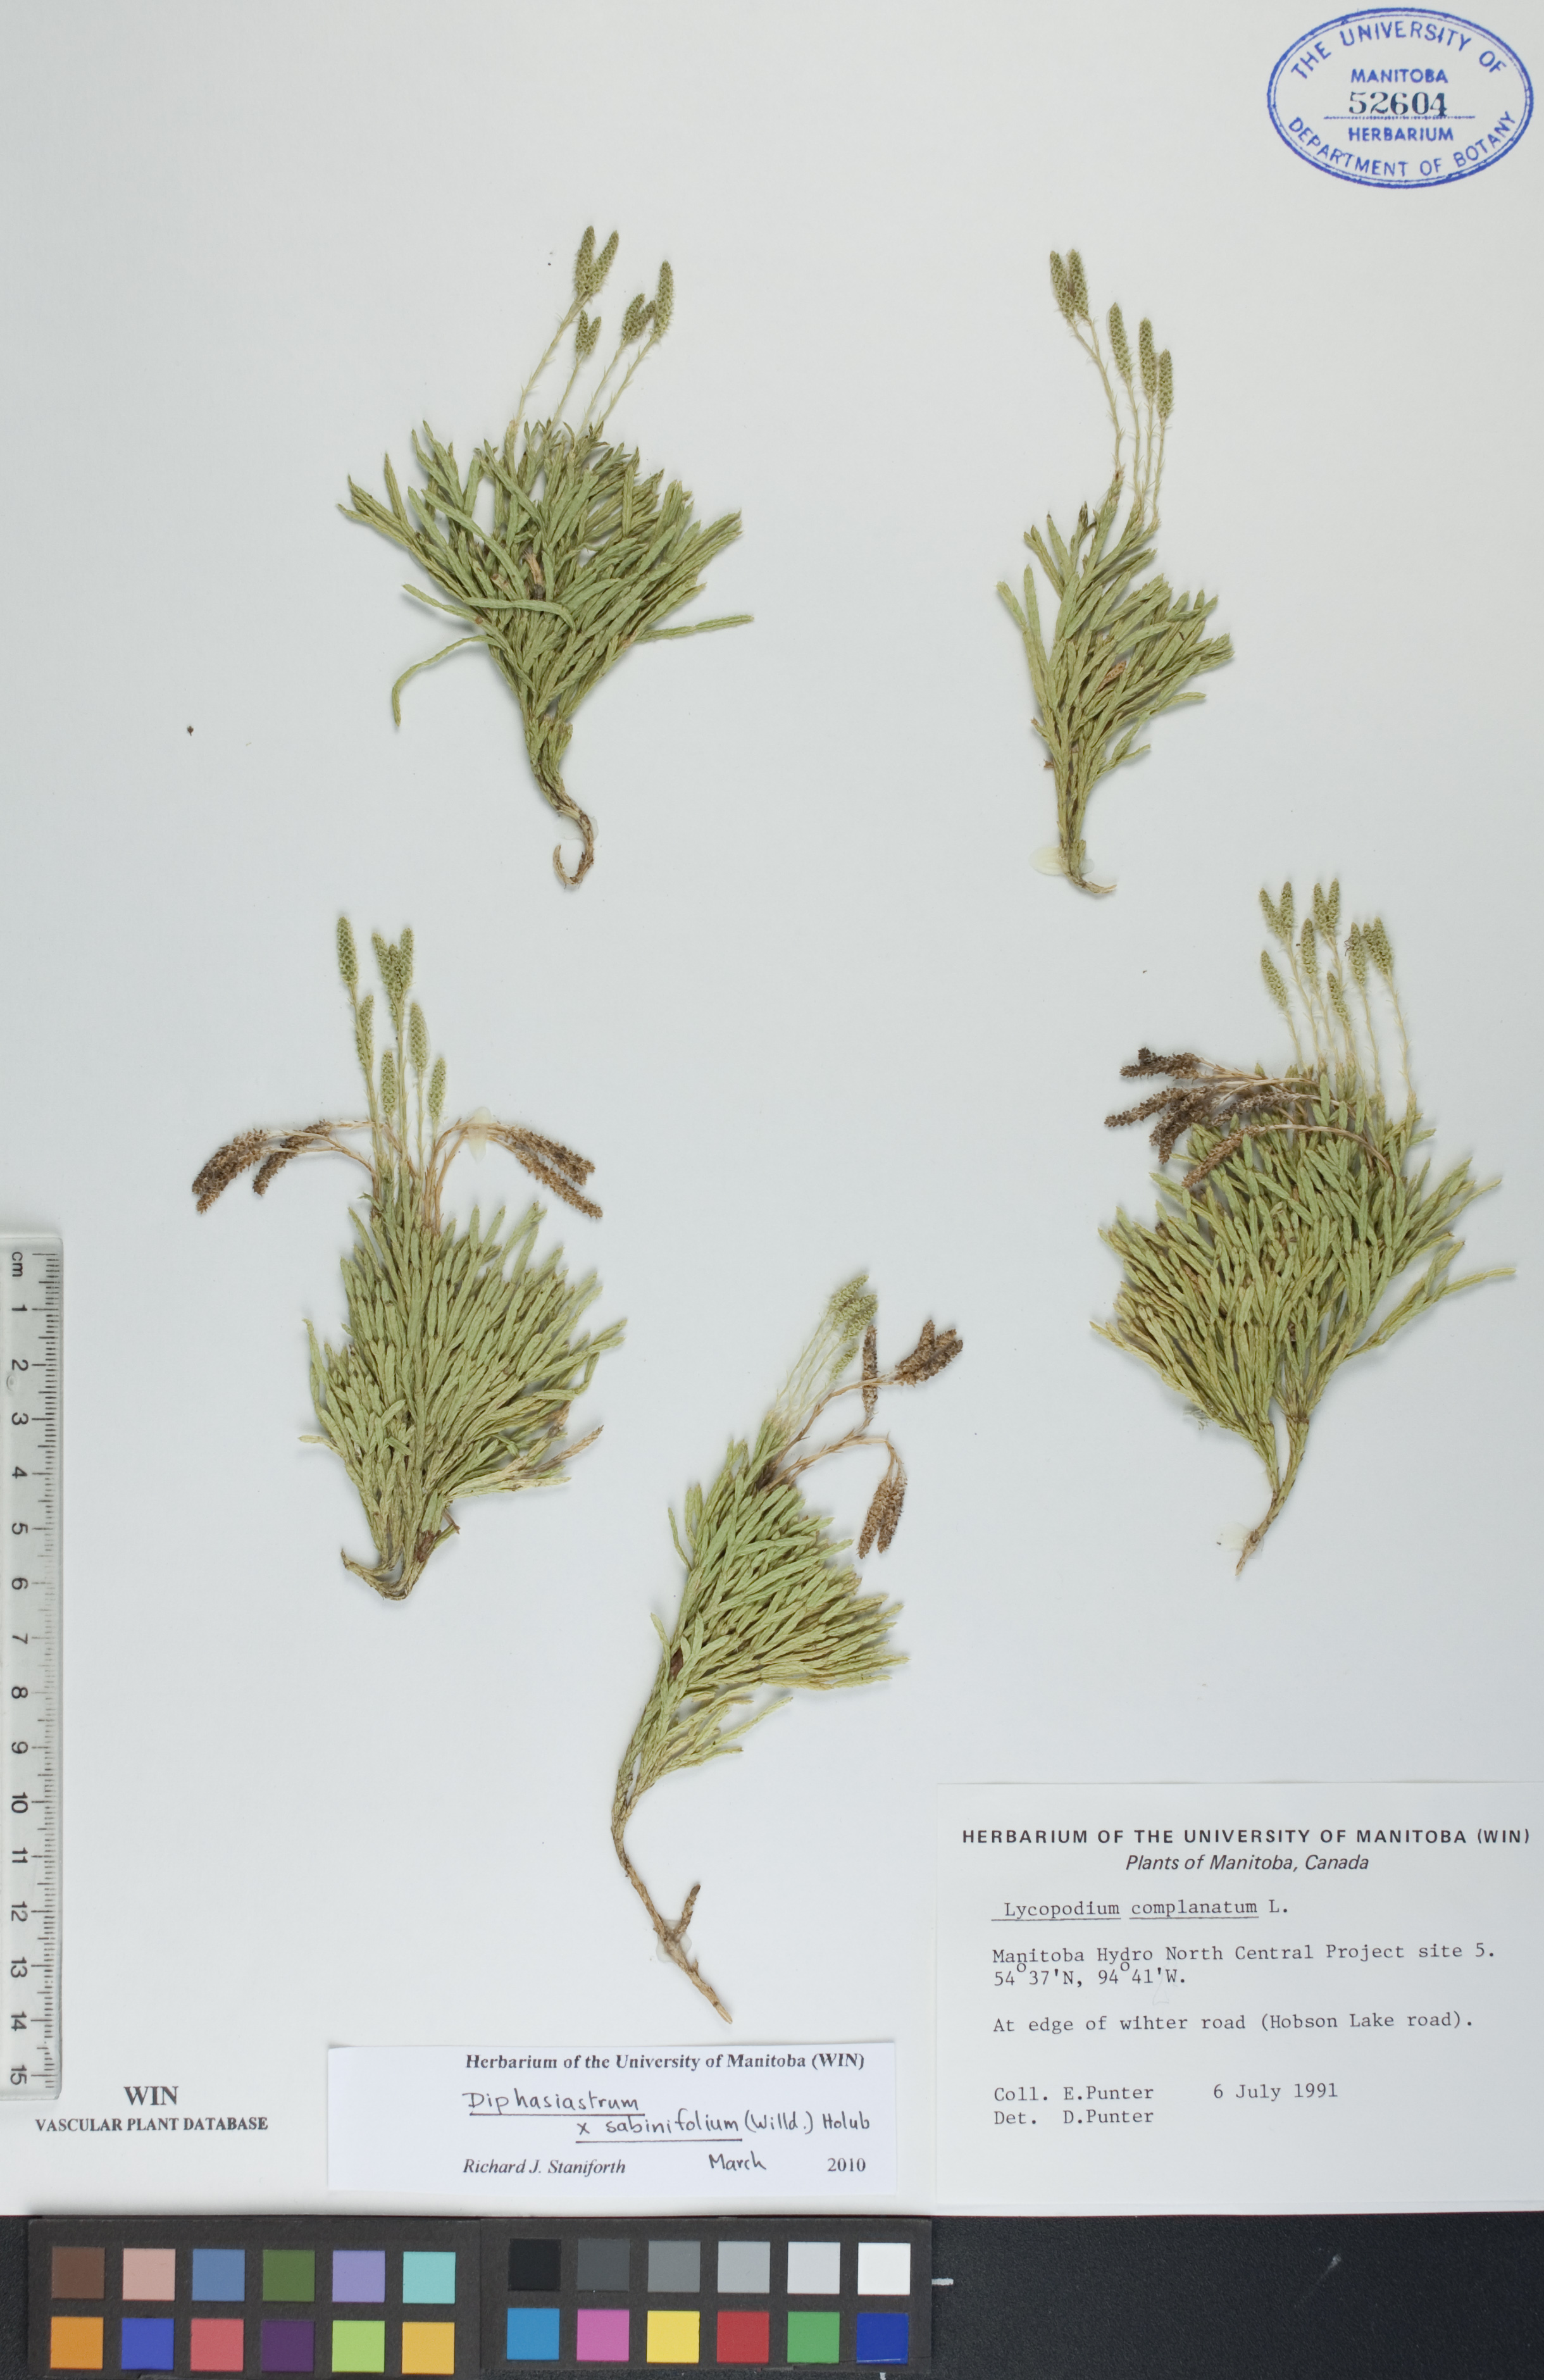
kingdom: Plantae
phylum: Tracheophyta
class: Lycopodiopsida
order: Lycopodiales
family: Lycopodiaceae
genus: Diphasiastrum
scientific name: Diphasiastrum sabinifolium
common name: Juniper clubmoss
